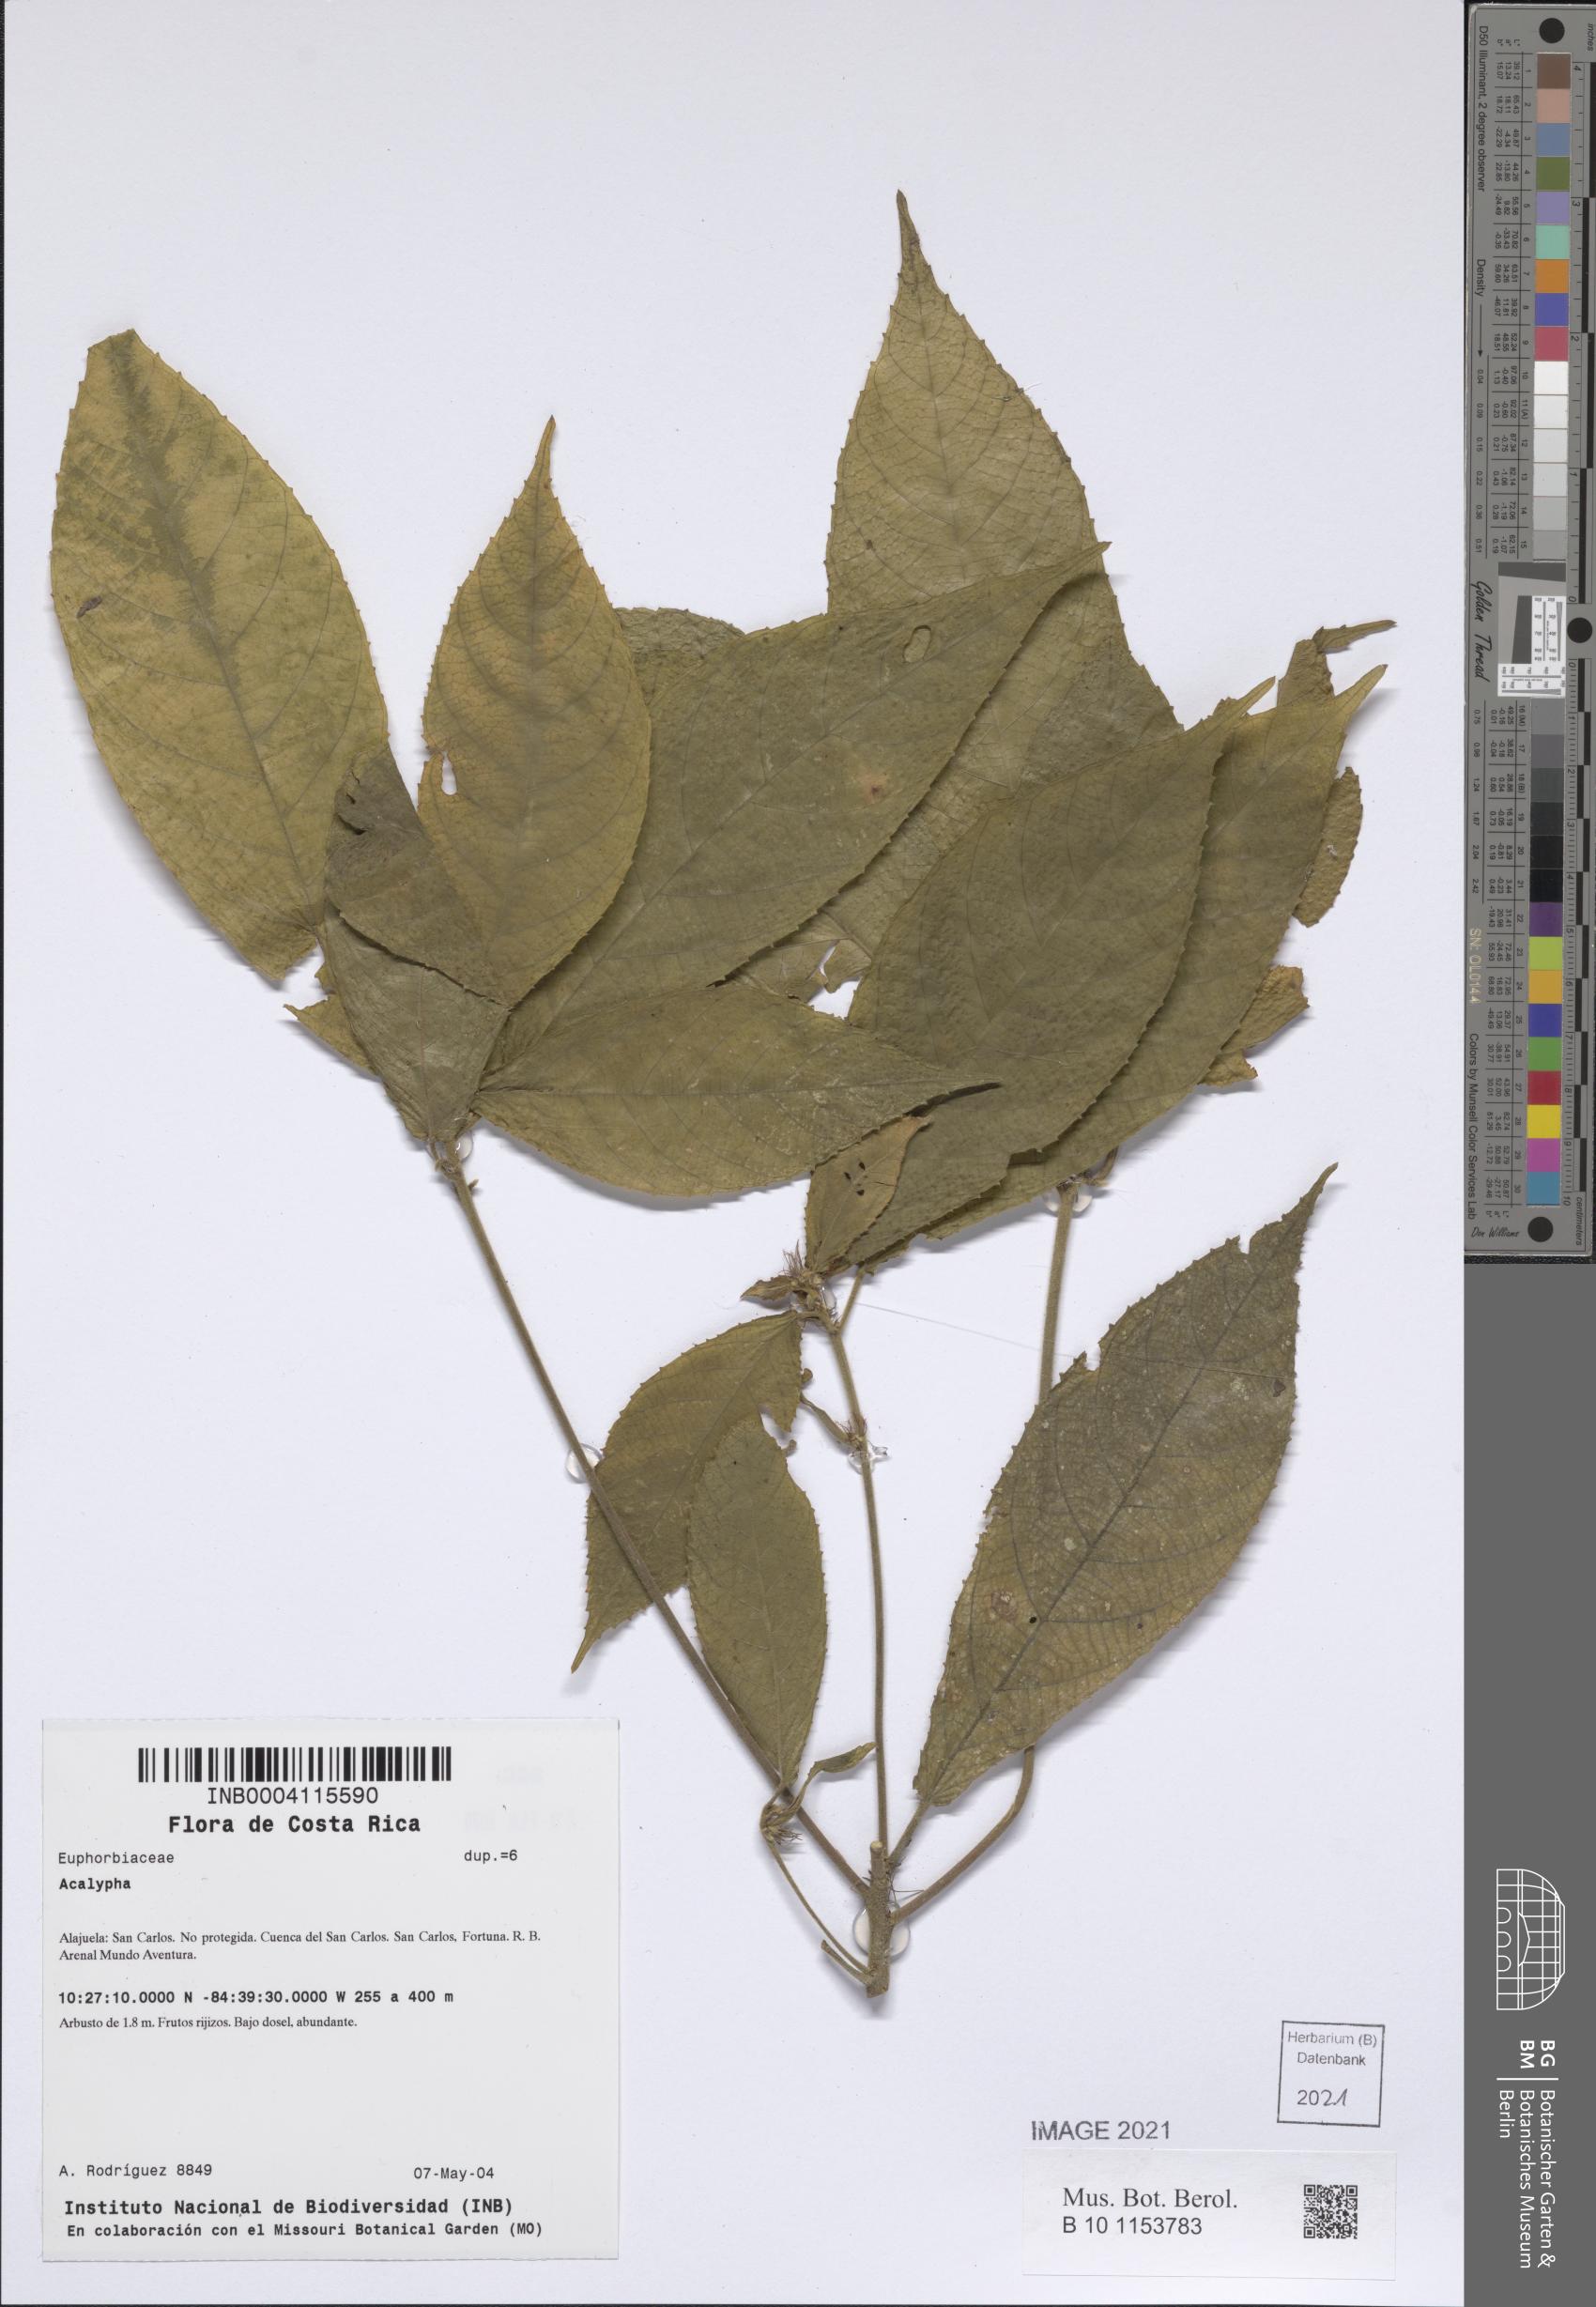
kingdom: Plantae
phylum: Tracheophyta
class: Magnoliopsida
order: Malpighiales
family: Euphorbiaceae
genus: Acalypha
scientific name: Acalypha ferdinandi
